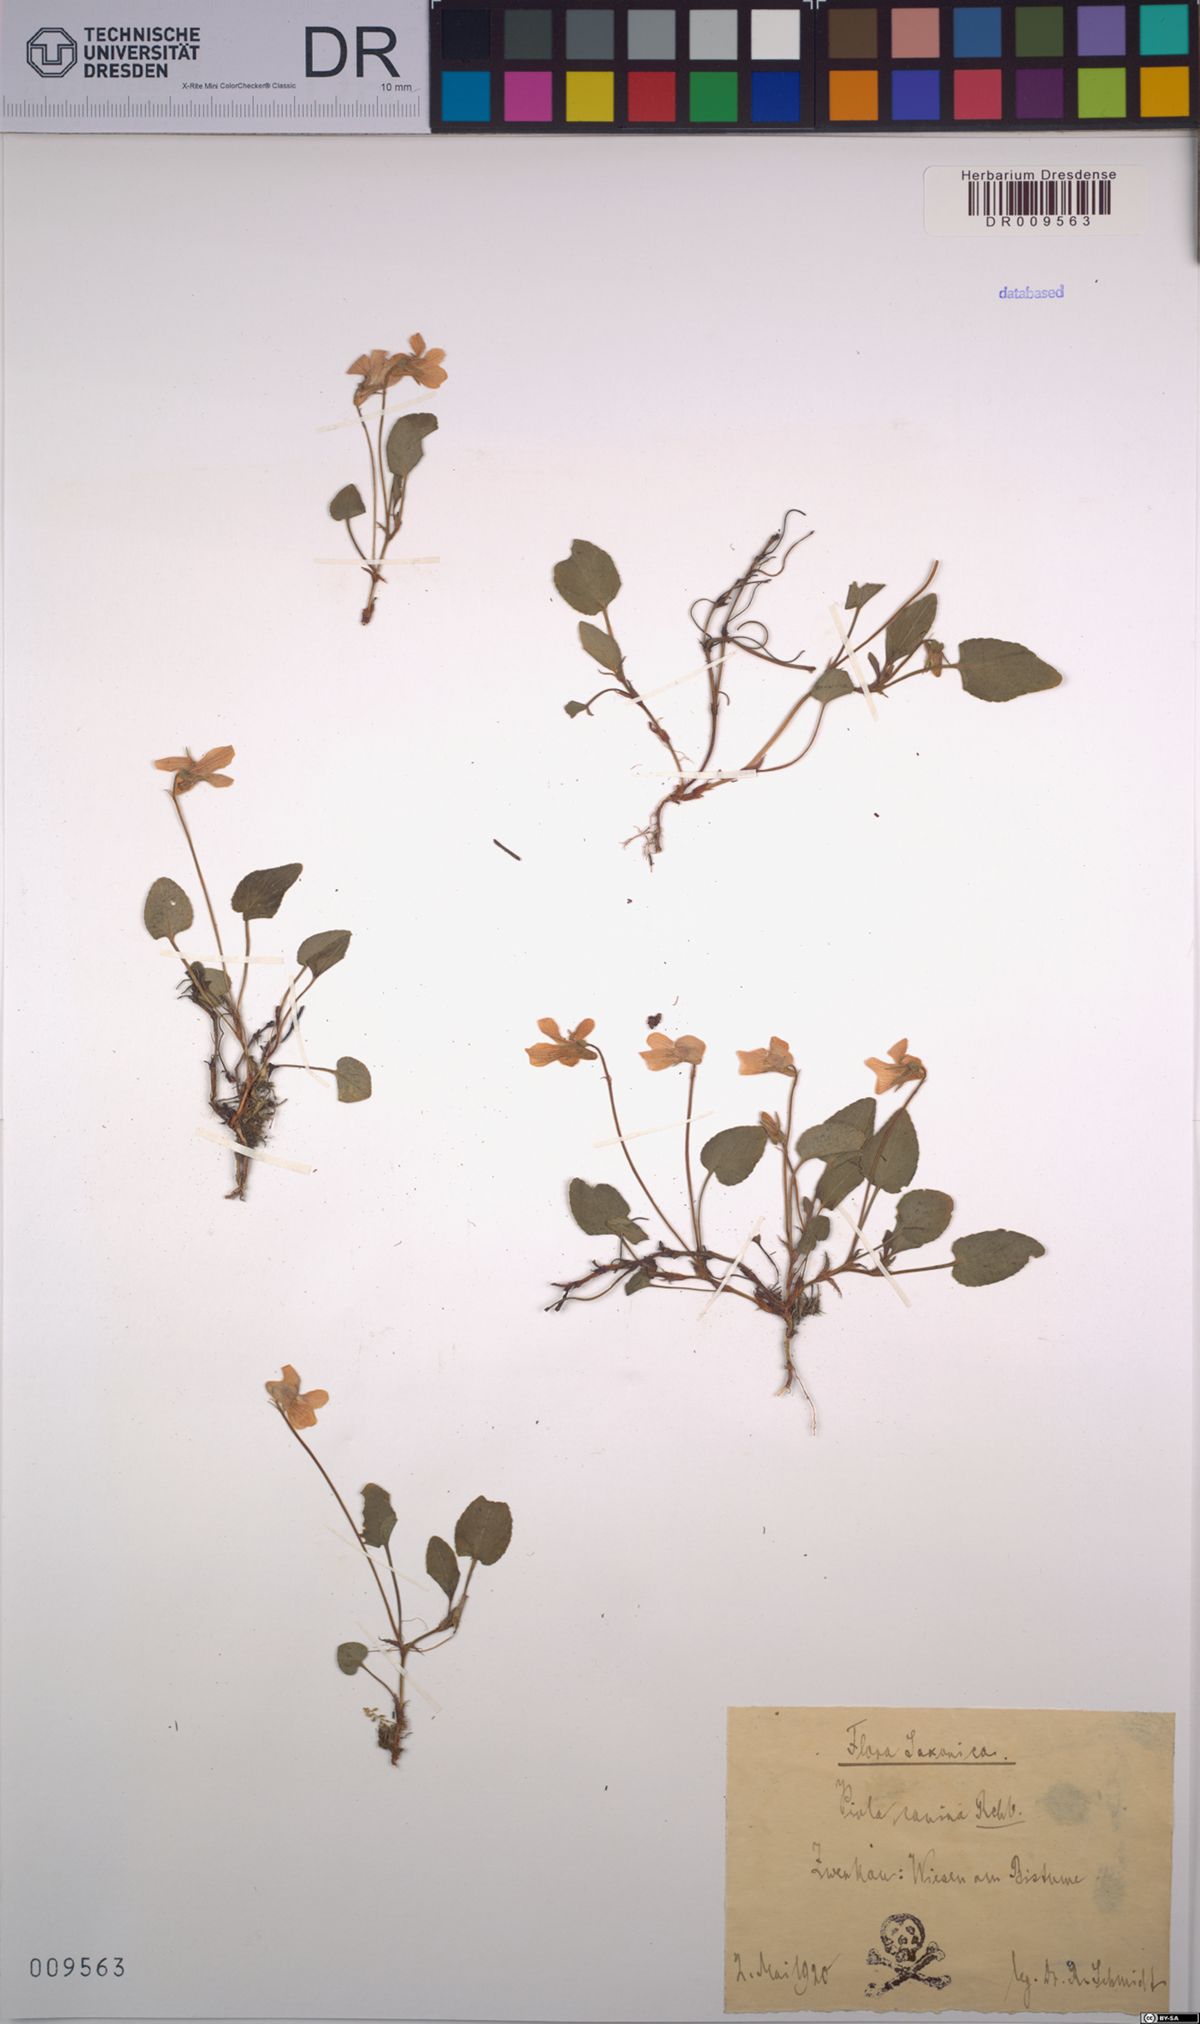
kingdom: Plantae
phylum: Tracheophyta
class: Magnoliopsida
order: Malpighiales
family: Violaceae
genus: Viola
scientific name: Viola canina
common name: Heath dog-violet
